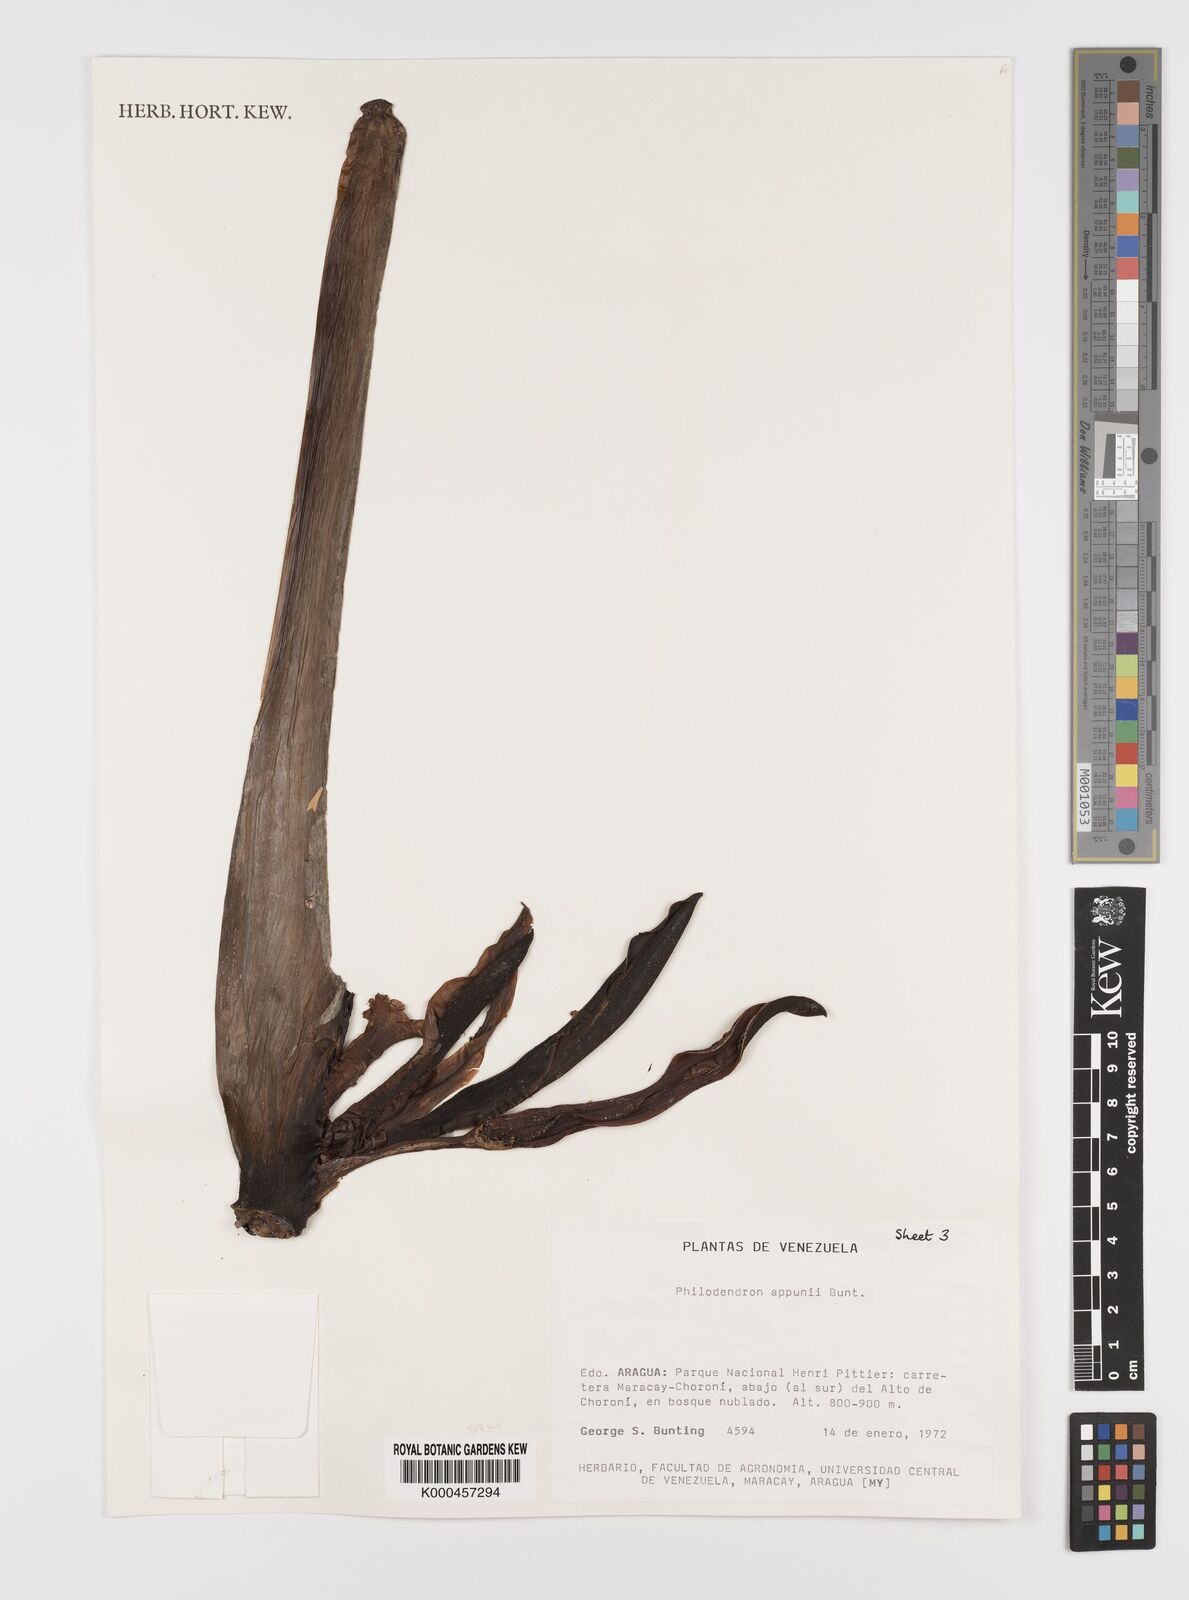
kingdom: Plantae
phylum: Tracheophyta
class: Liliopsida
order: Alismatales
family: Araceae
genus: Philodendron
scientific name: Philodendron appunii
